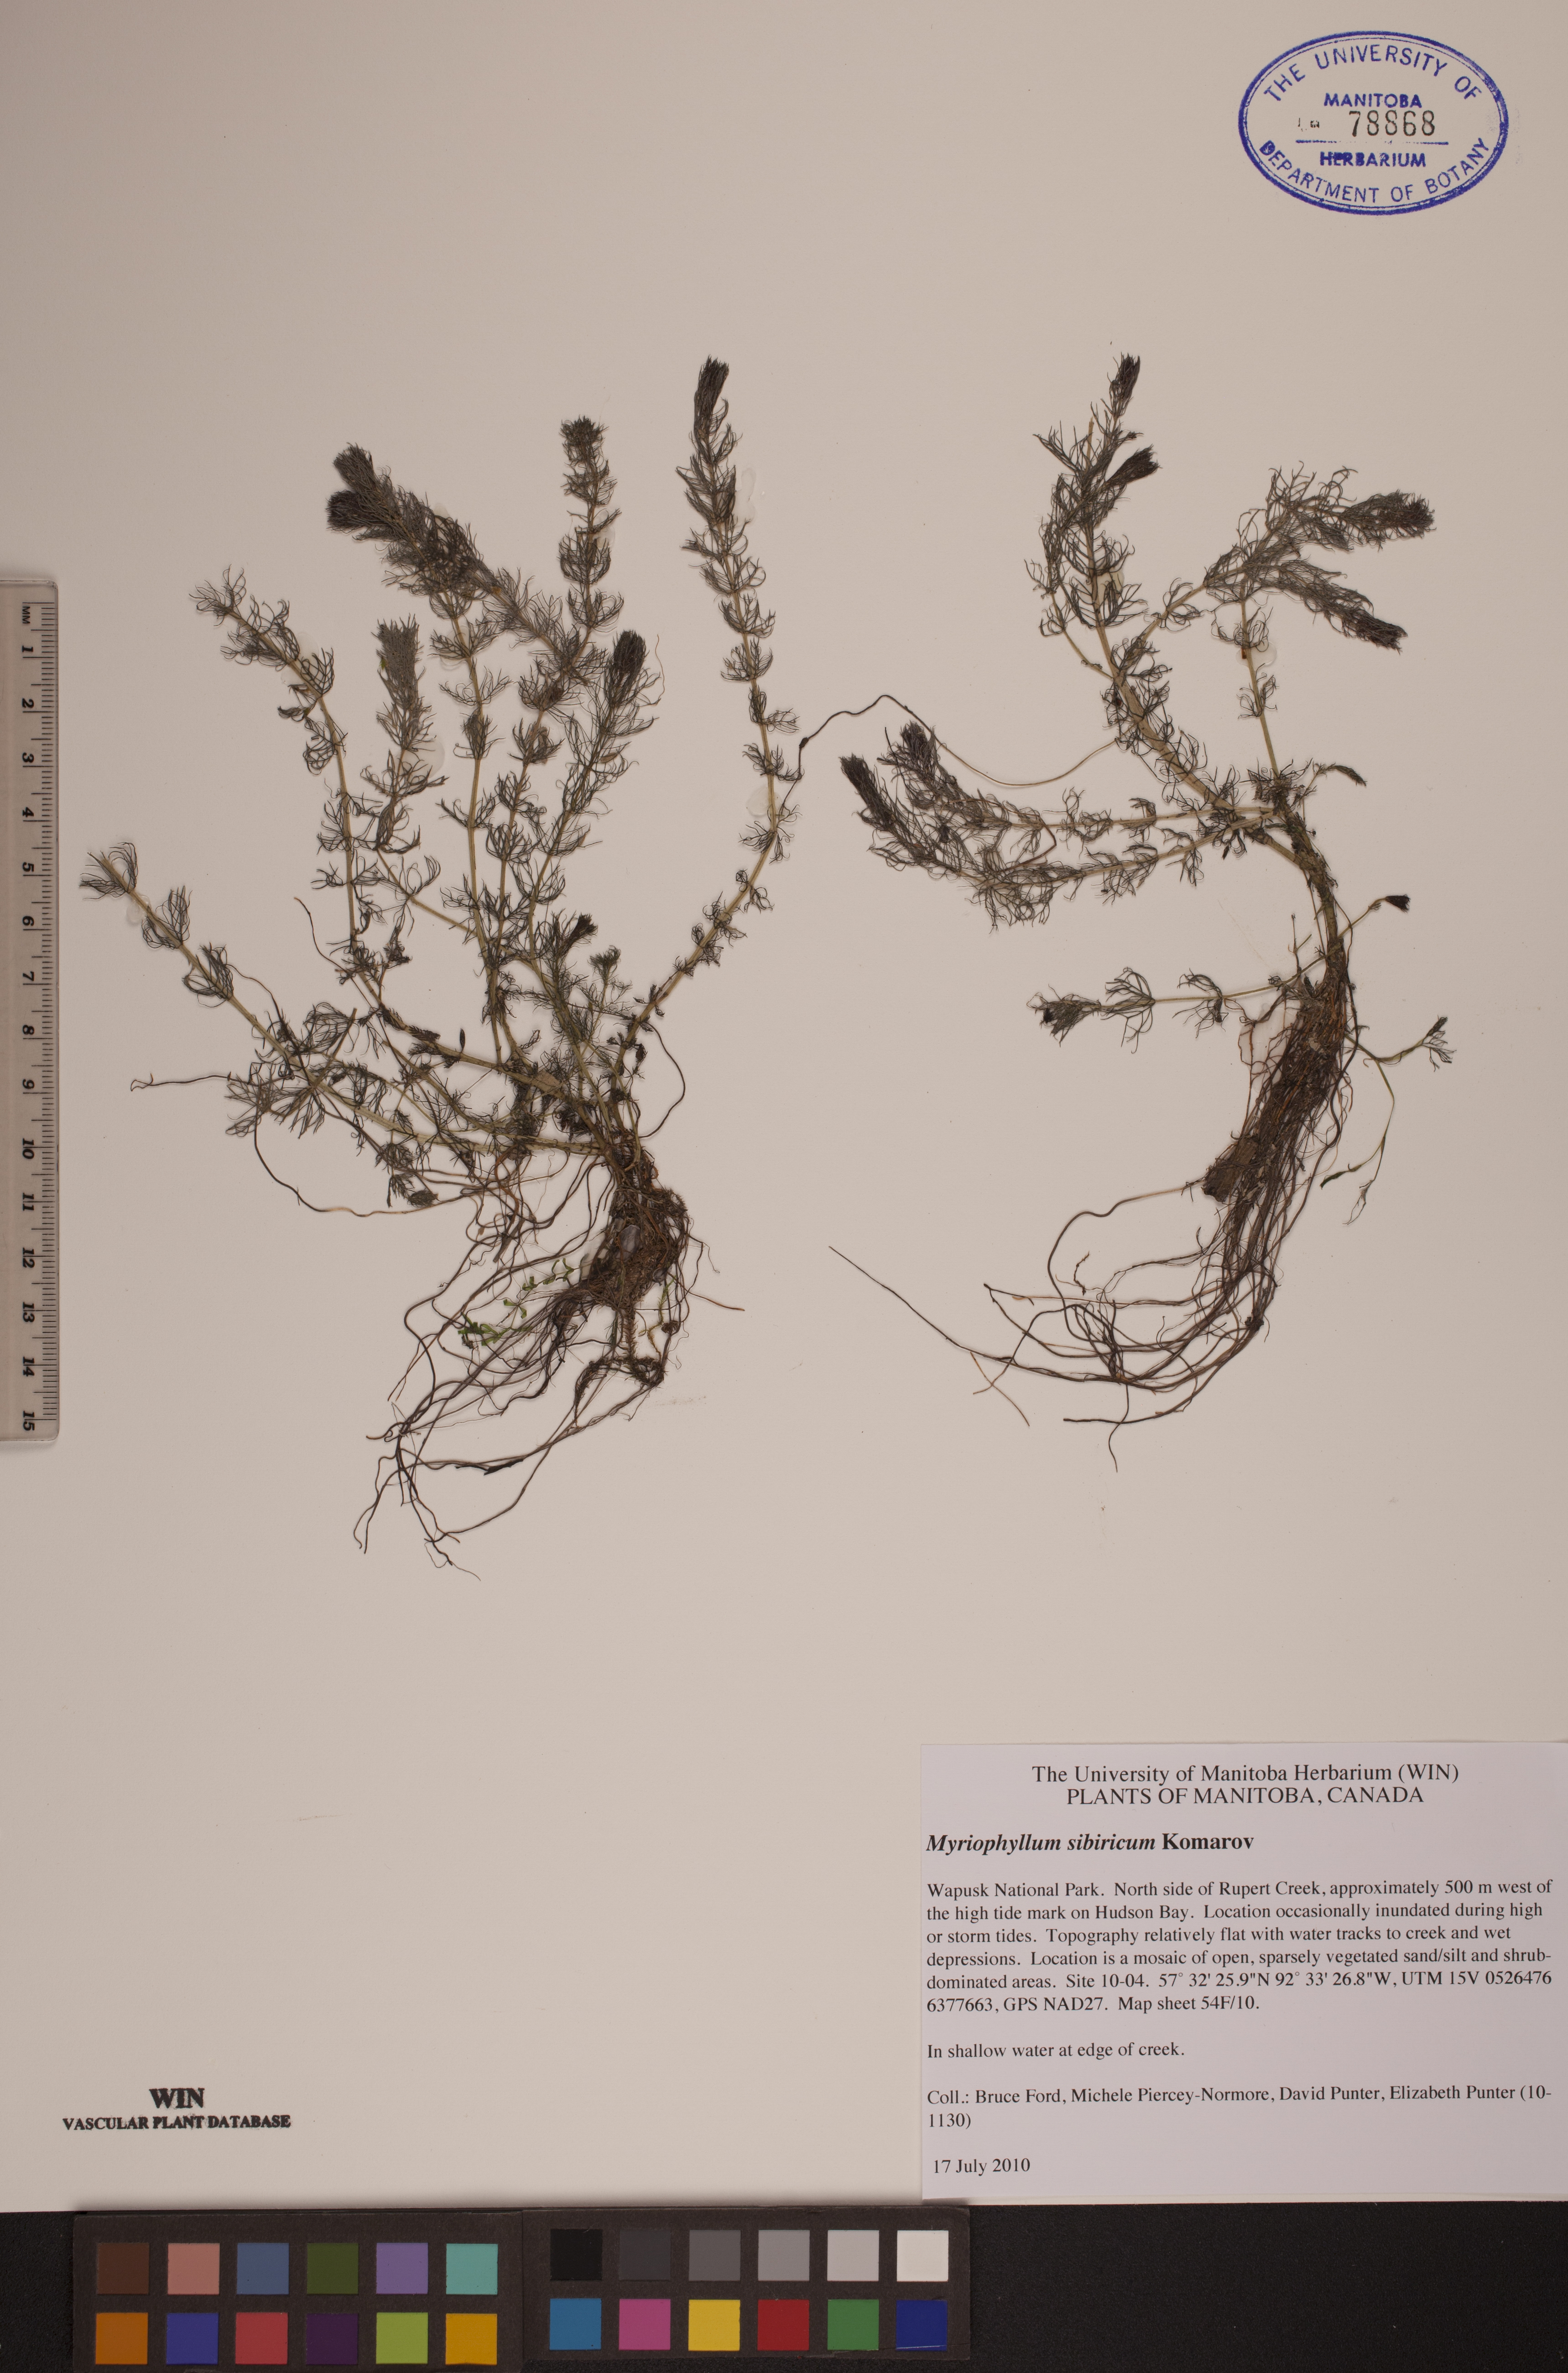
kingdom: Plantae
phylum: Tracheophyta
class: Magnoliopsida
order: Saxifragales
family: Haloragaceae
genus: Myriophyllum
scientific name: Myriophyllum sibiricum
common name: Siberian water-milfoil
